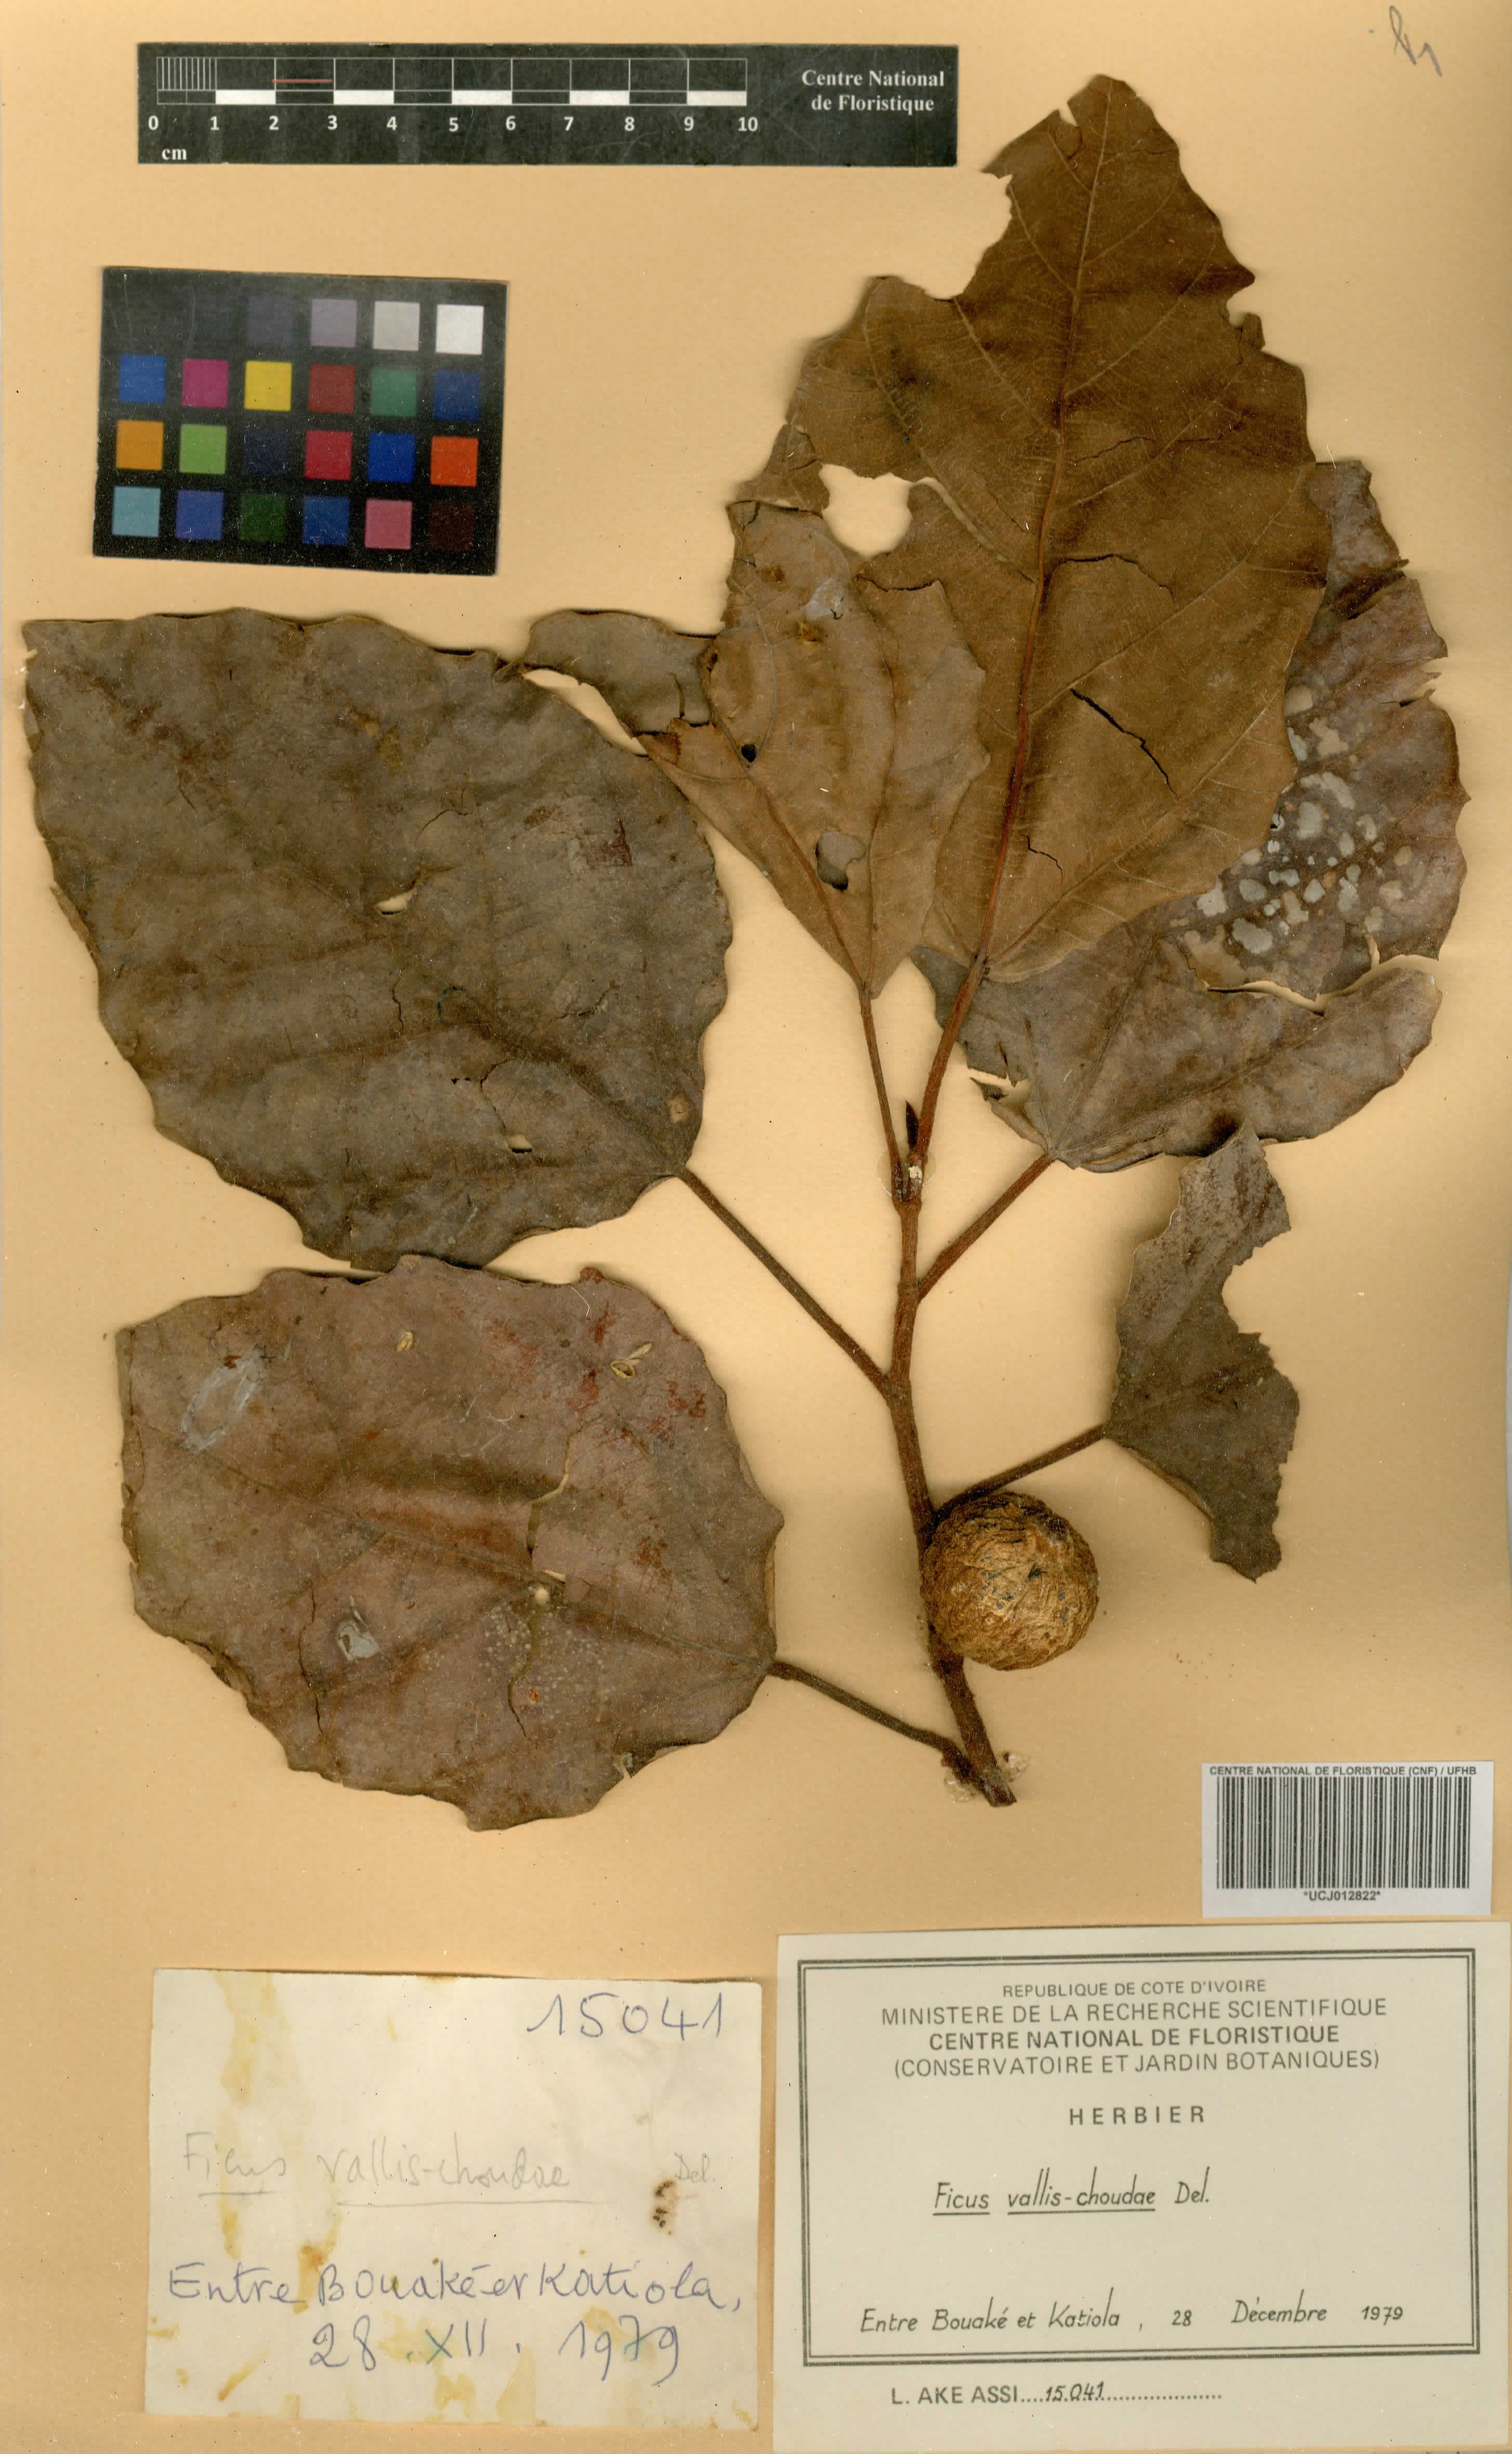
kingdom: Plantae
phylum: Tracheophyta
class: Magnoliopsida
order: Rosales
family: Moraceae
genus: Ficus
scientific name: Ficus vallis-choudae
